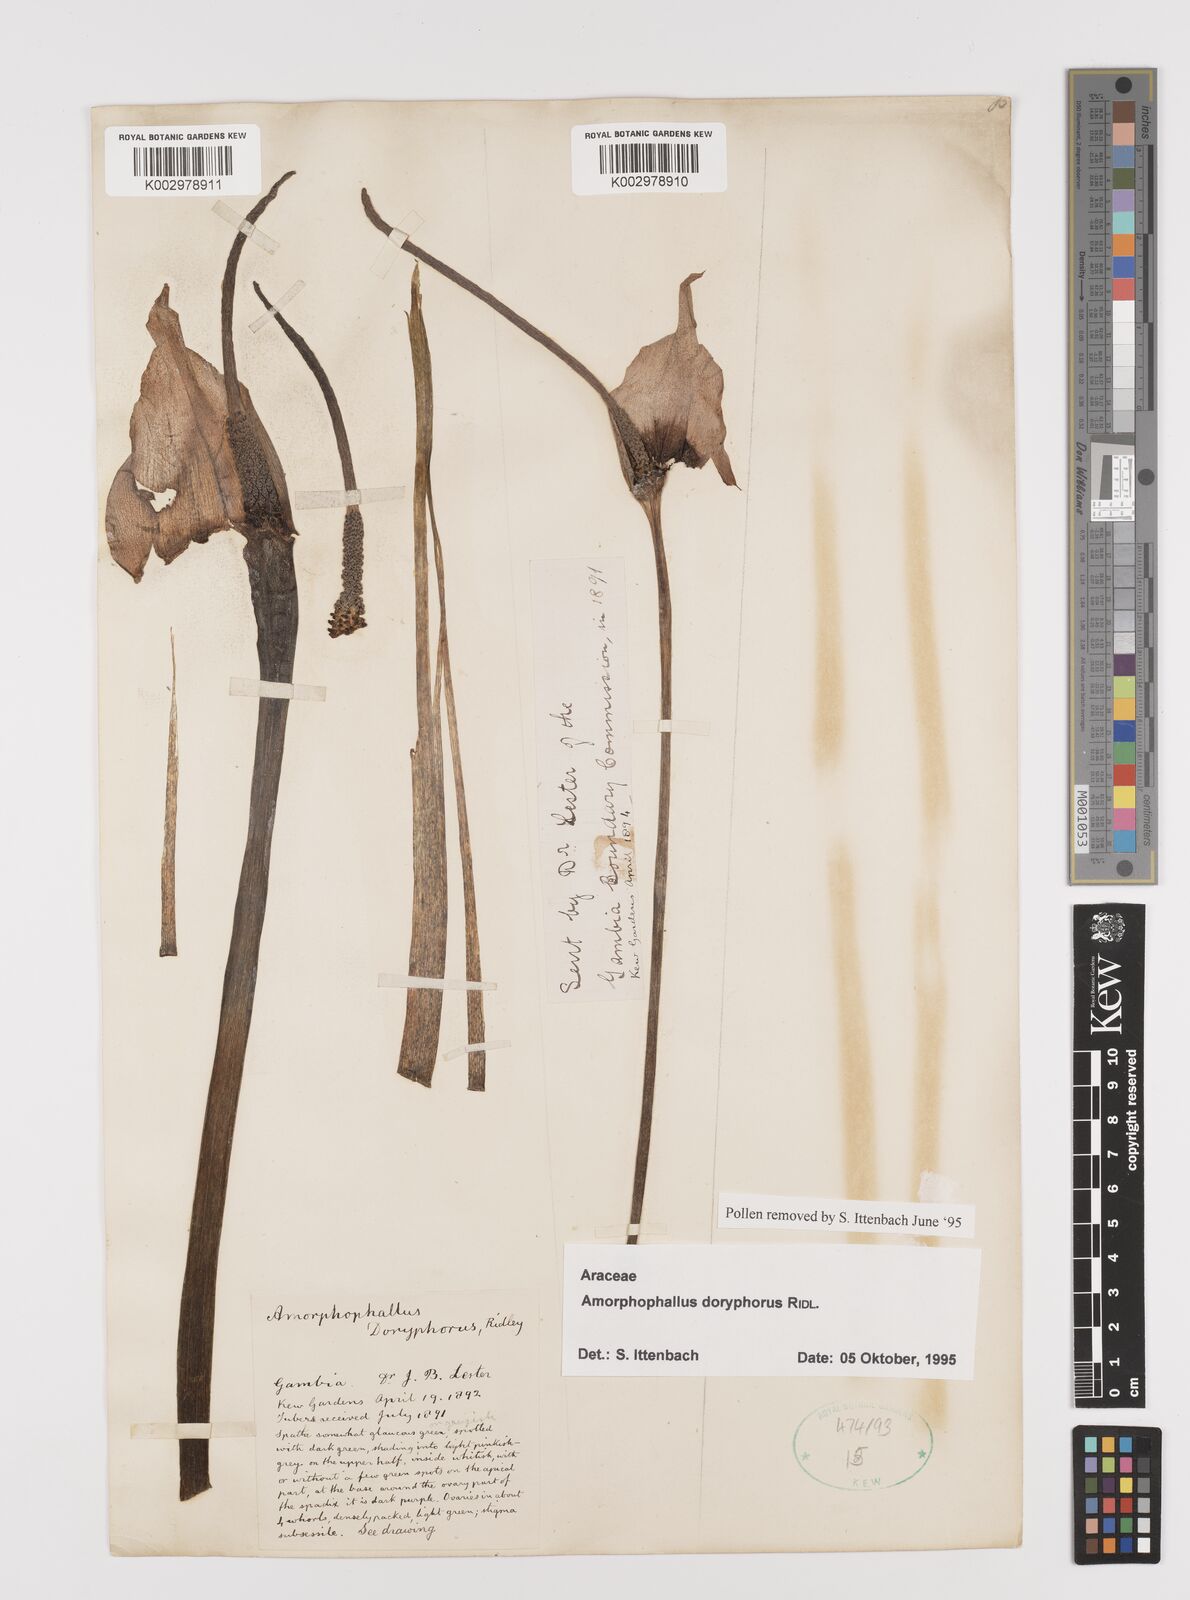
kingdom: Plantae
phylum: Tracheophyta
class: Liliopsida
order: Alismatales
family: Araceae
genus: Amorphophallus
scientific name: Amorphophallus consimilis
